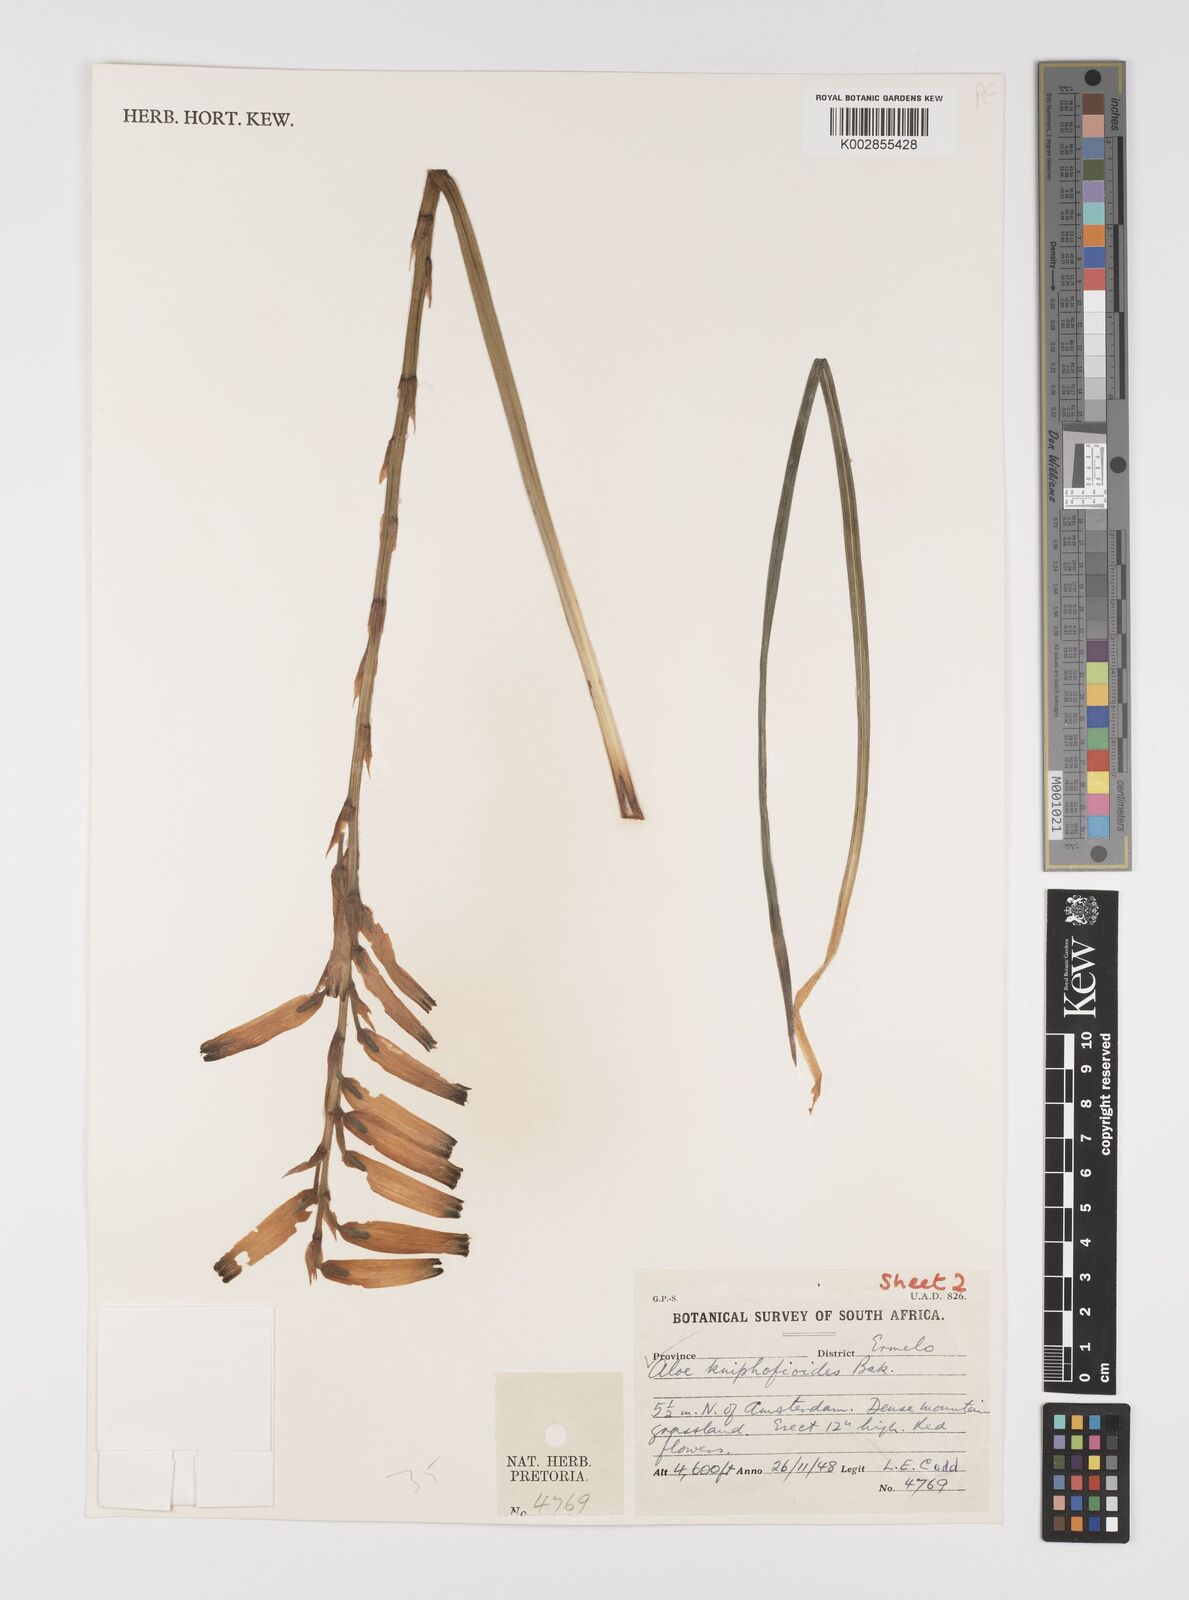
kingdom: Plantae
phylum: Tracheophyta
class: Liliopsida
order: Asparagales
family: Asphodelaceae
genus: Aloe
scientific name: Aloe kniphofioides
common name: Grass aloe
